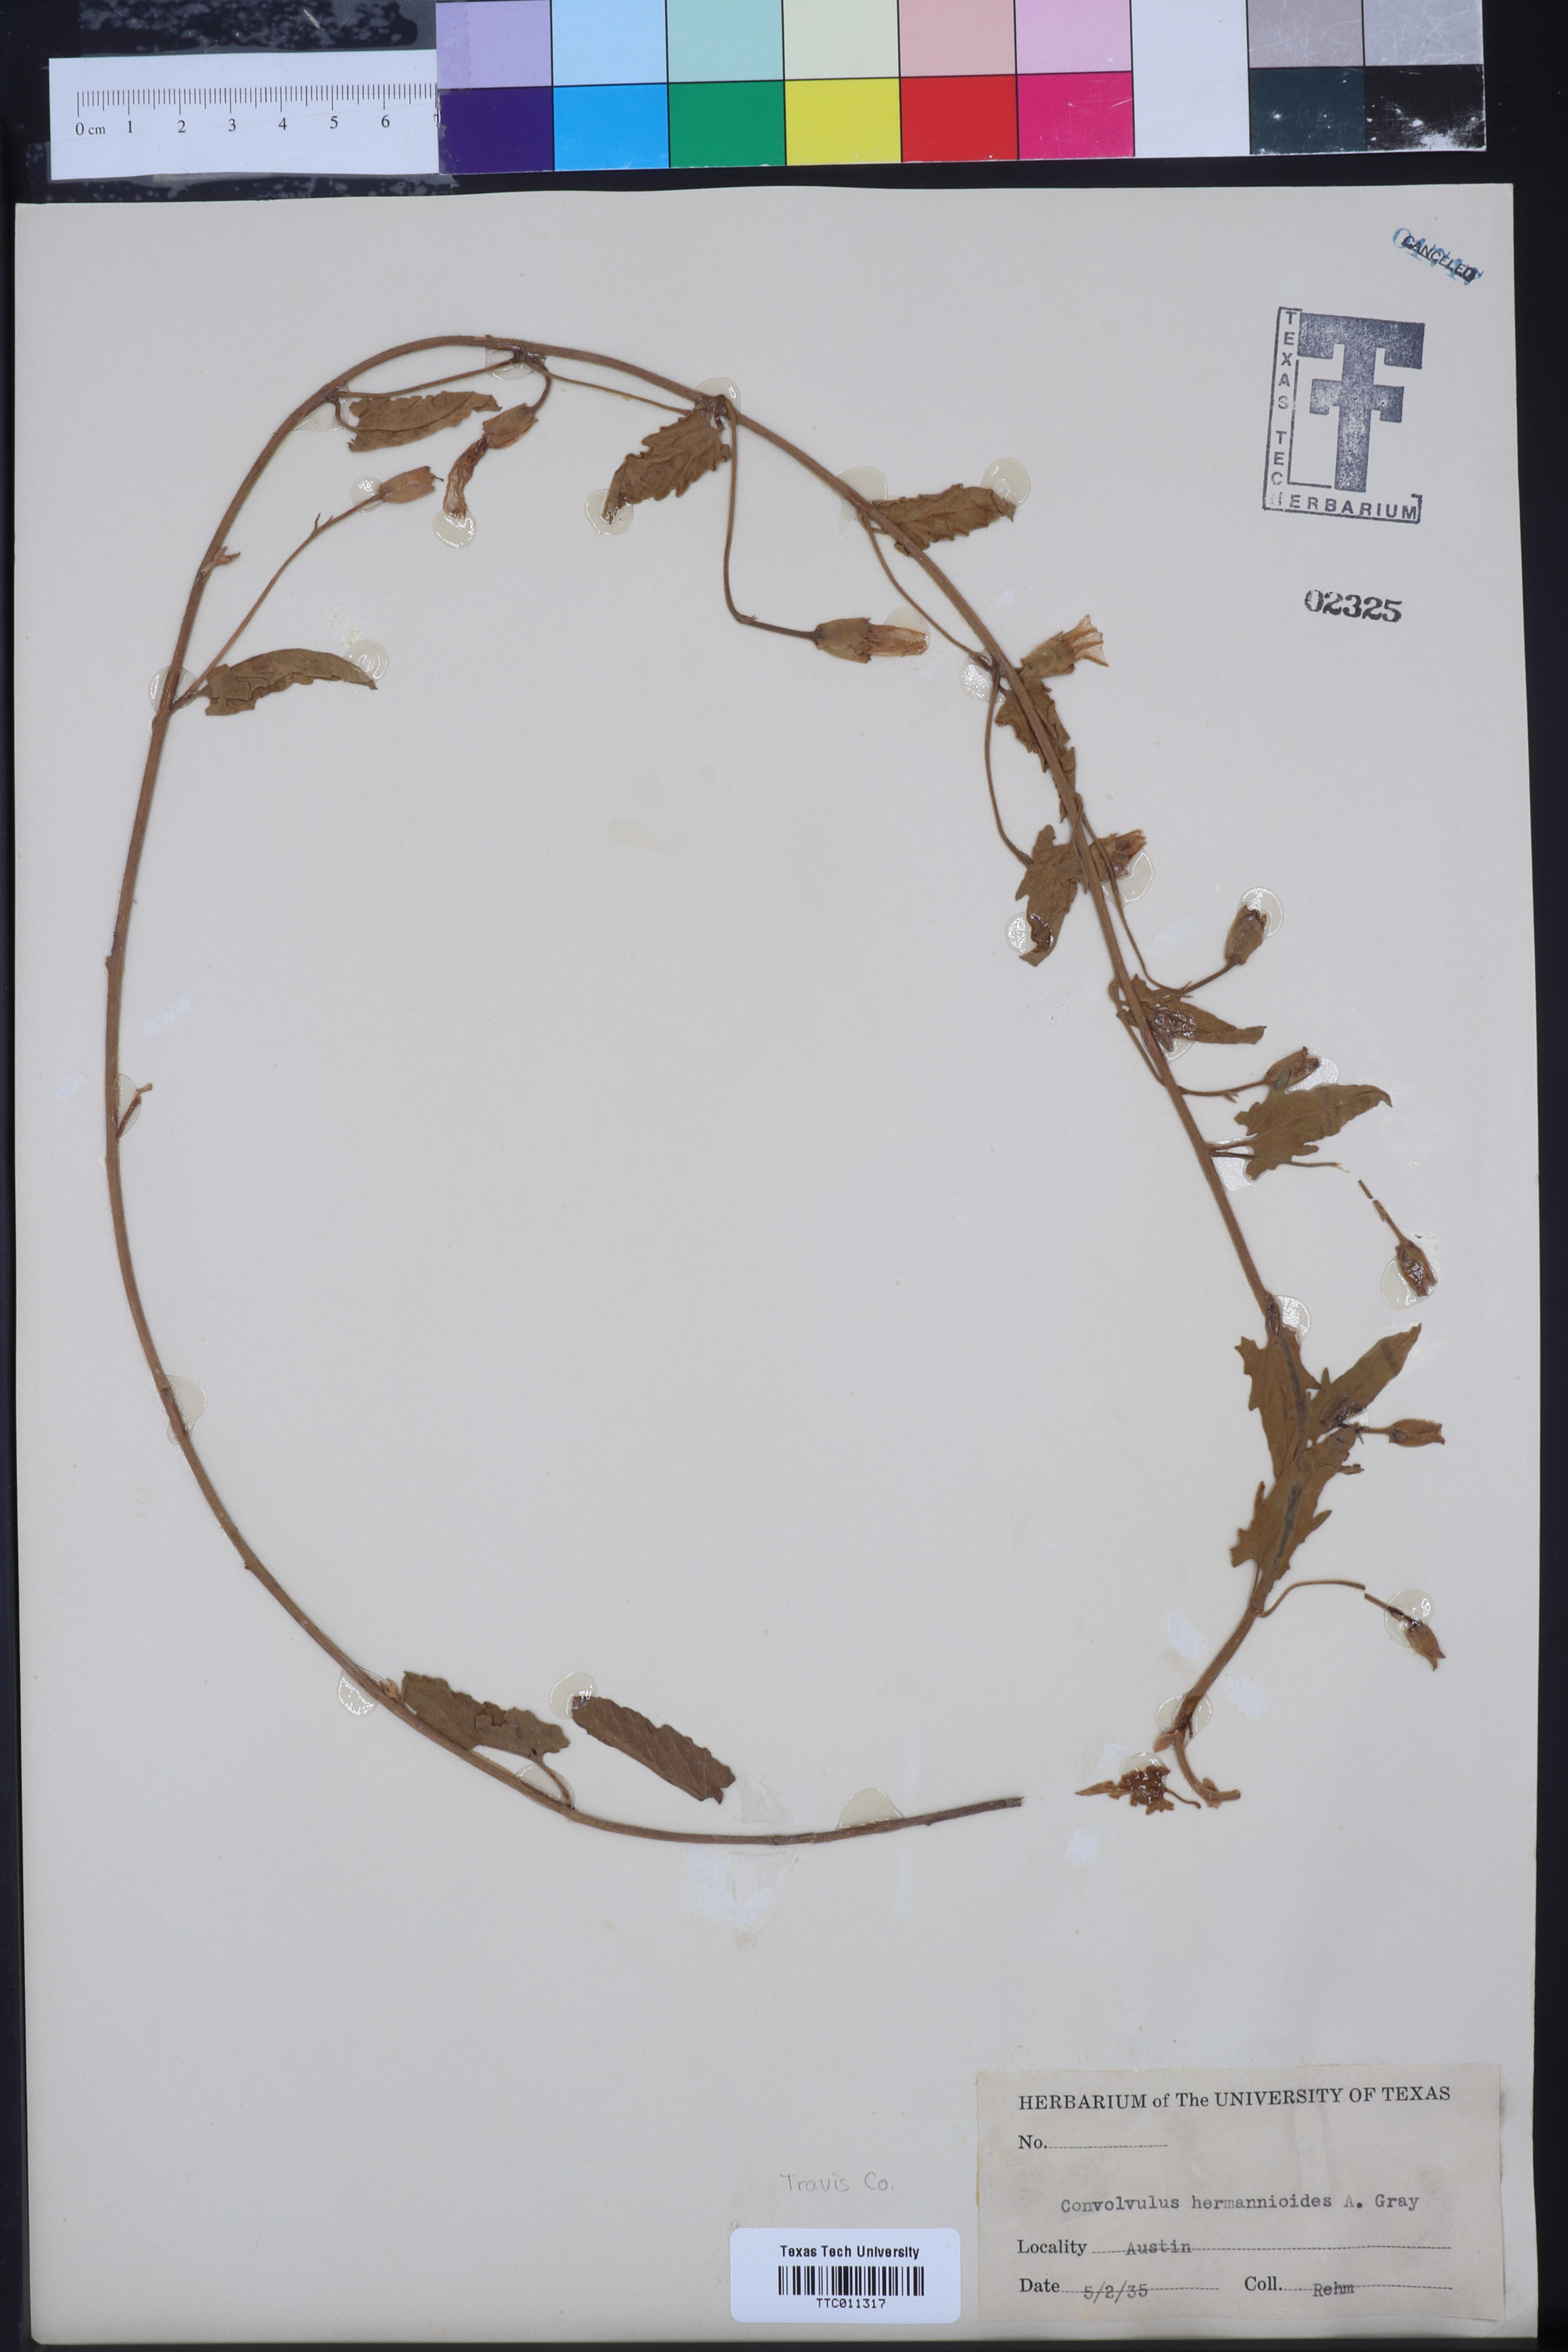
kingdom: Plantae
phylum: Tracheophyta
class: Magnoliopsida
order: Solanales
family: Convolvulaceae
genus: Convolvulus
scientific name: Convolvulus equitans
